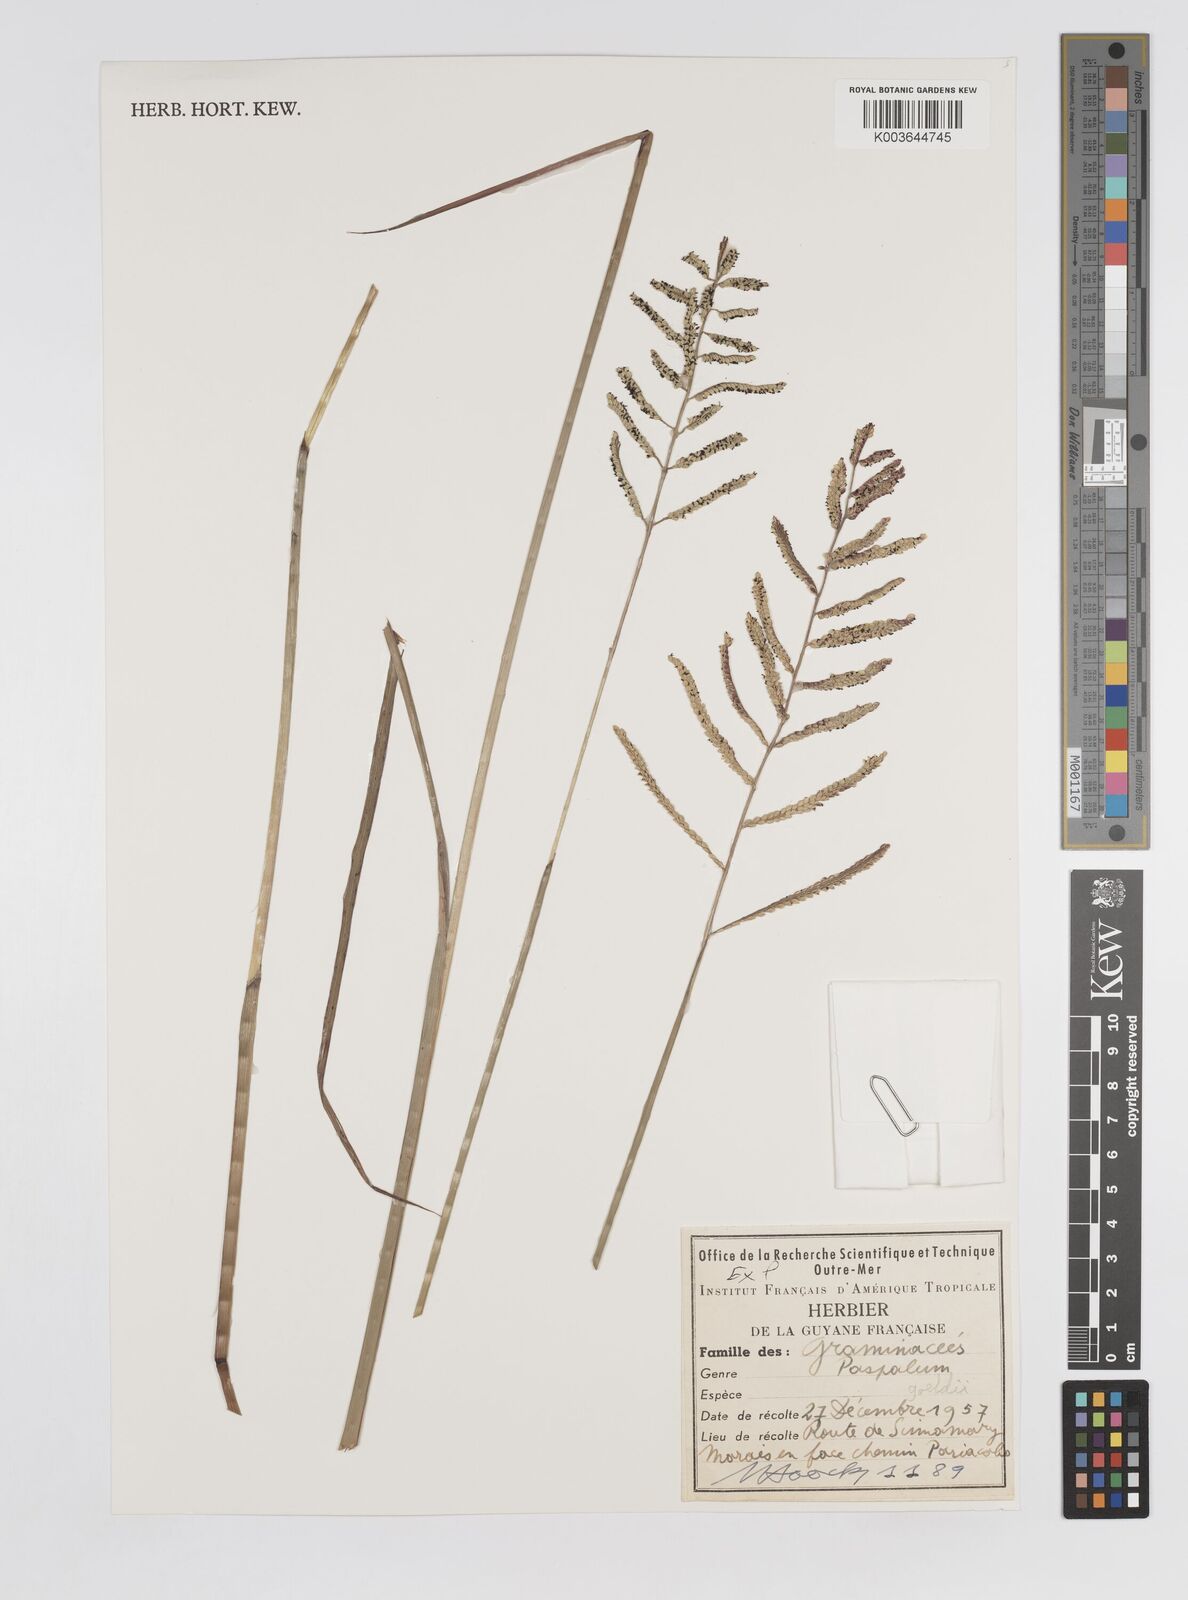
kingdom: Plantae
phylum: Tracheophyta
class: Liliopsida
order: Poales
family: Poaceae
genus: Paspalum
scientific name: Paspalum trichophyllum
